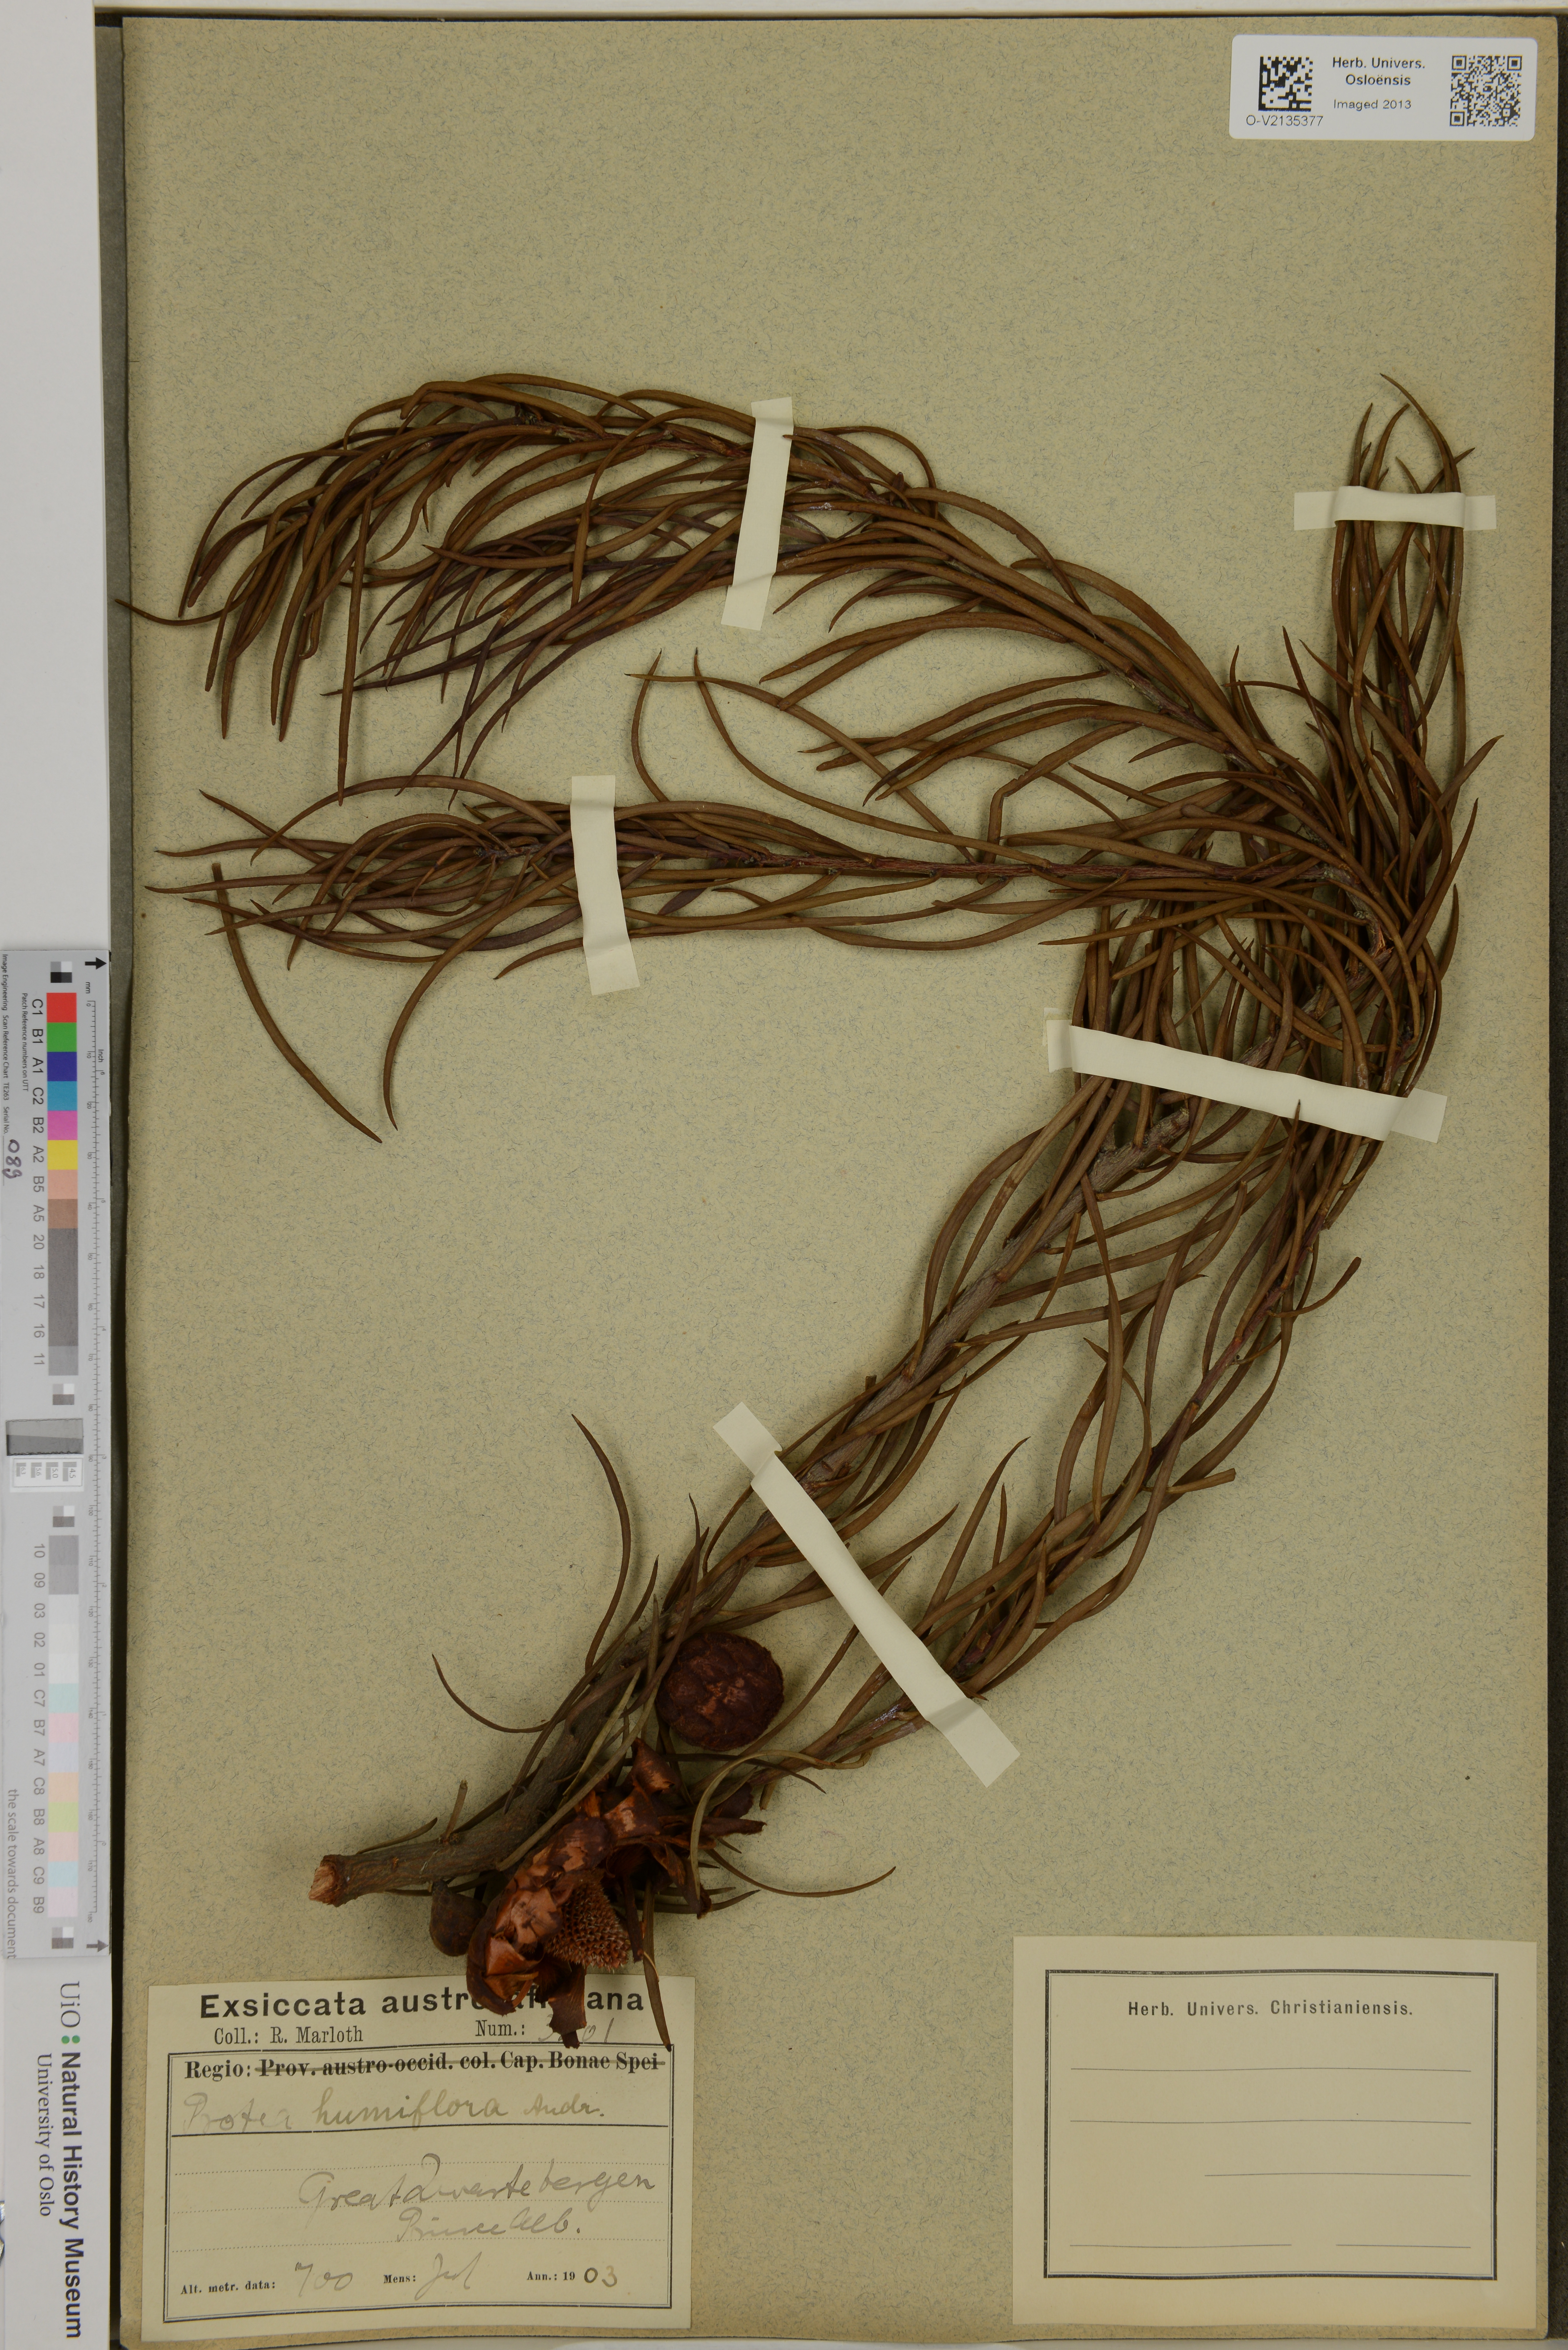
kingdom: Plantae
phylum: Tracheophyta
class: Magnoliopsida
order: Proteales
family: Proteaceae
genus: Protea
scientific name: Protea humiflora
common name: Patent-leaf sugarbush
